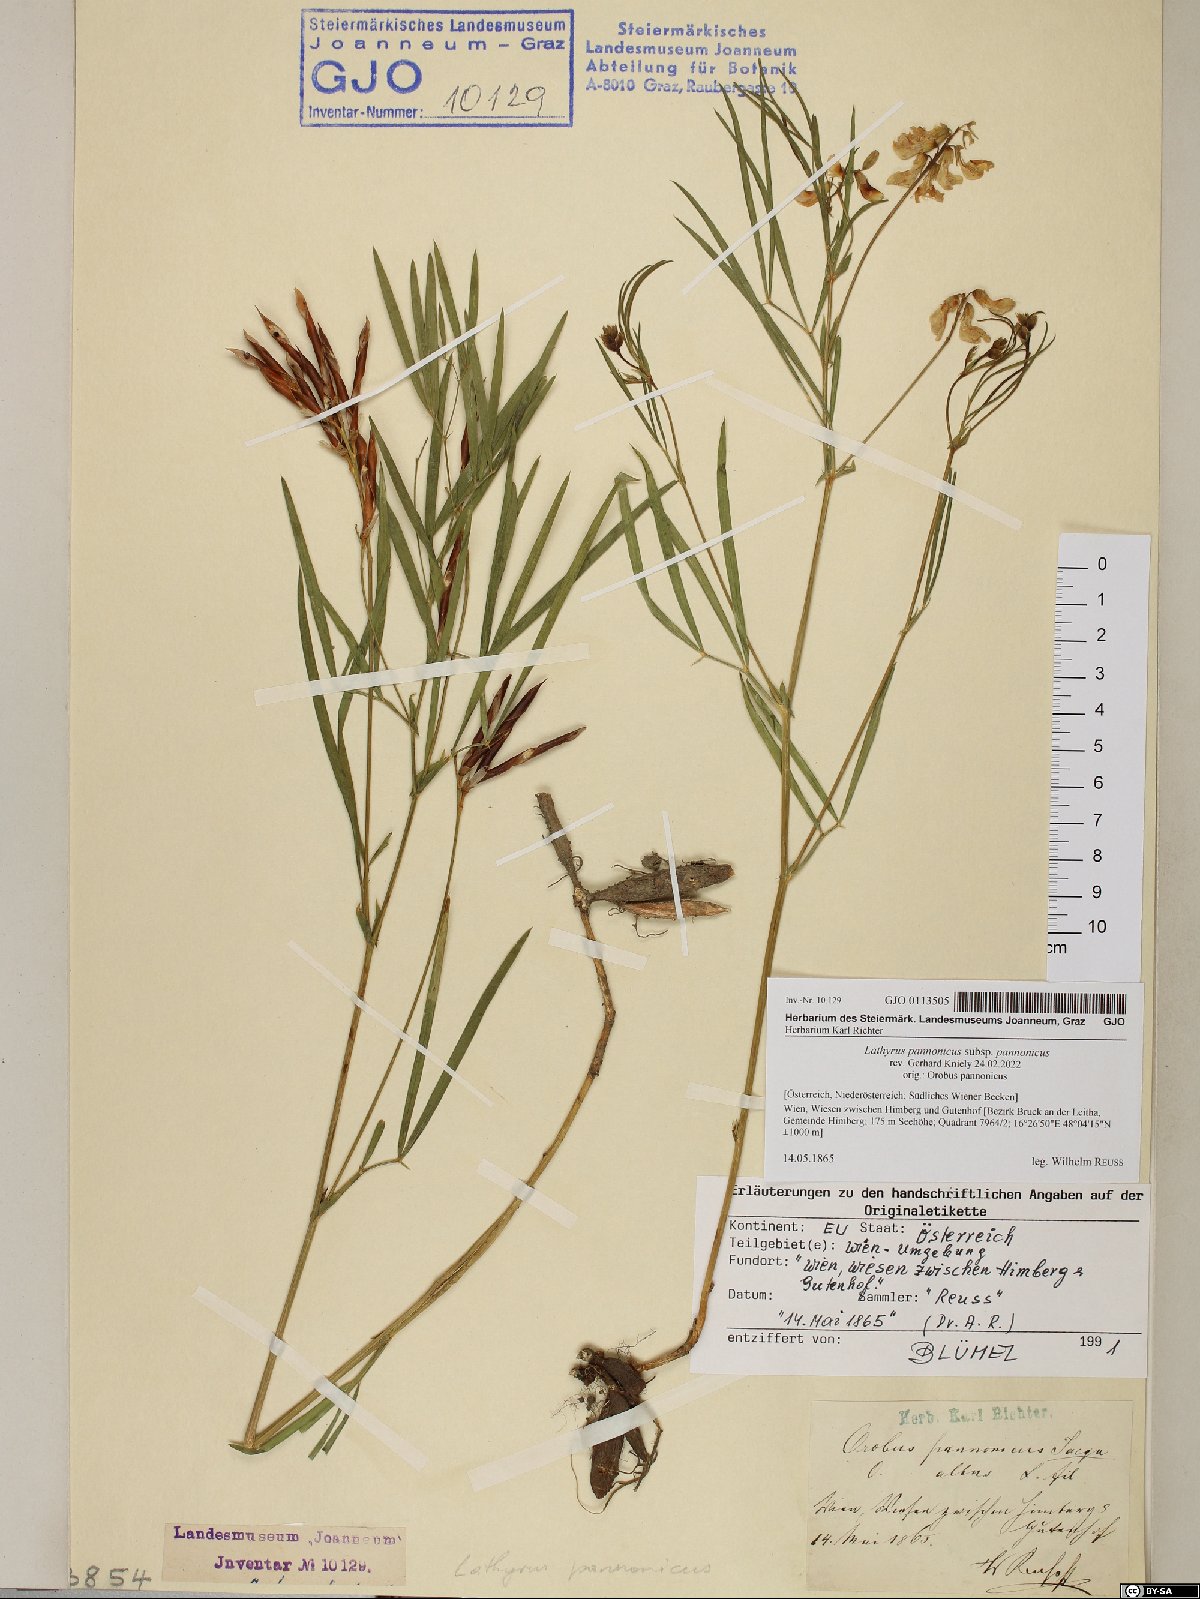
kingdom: Plantae
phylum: Tracheophyta
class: Magnoliopsida
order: Fabales
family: Fabaceae
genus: Lathyrus
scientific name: Lathyrus pannonicus
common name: Pea
